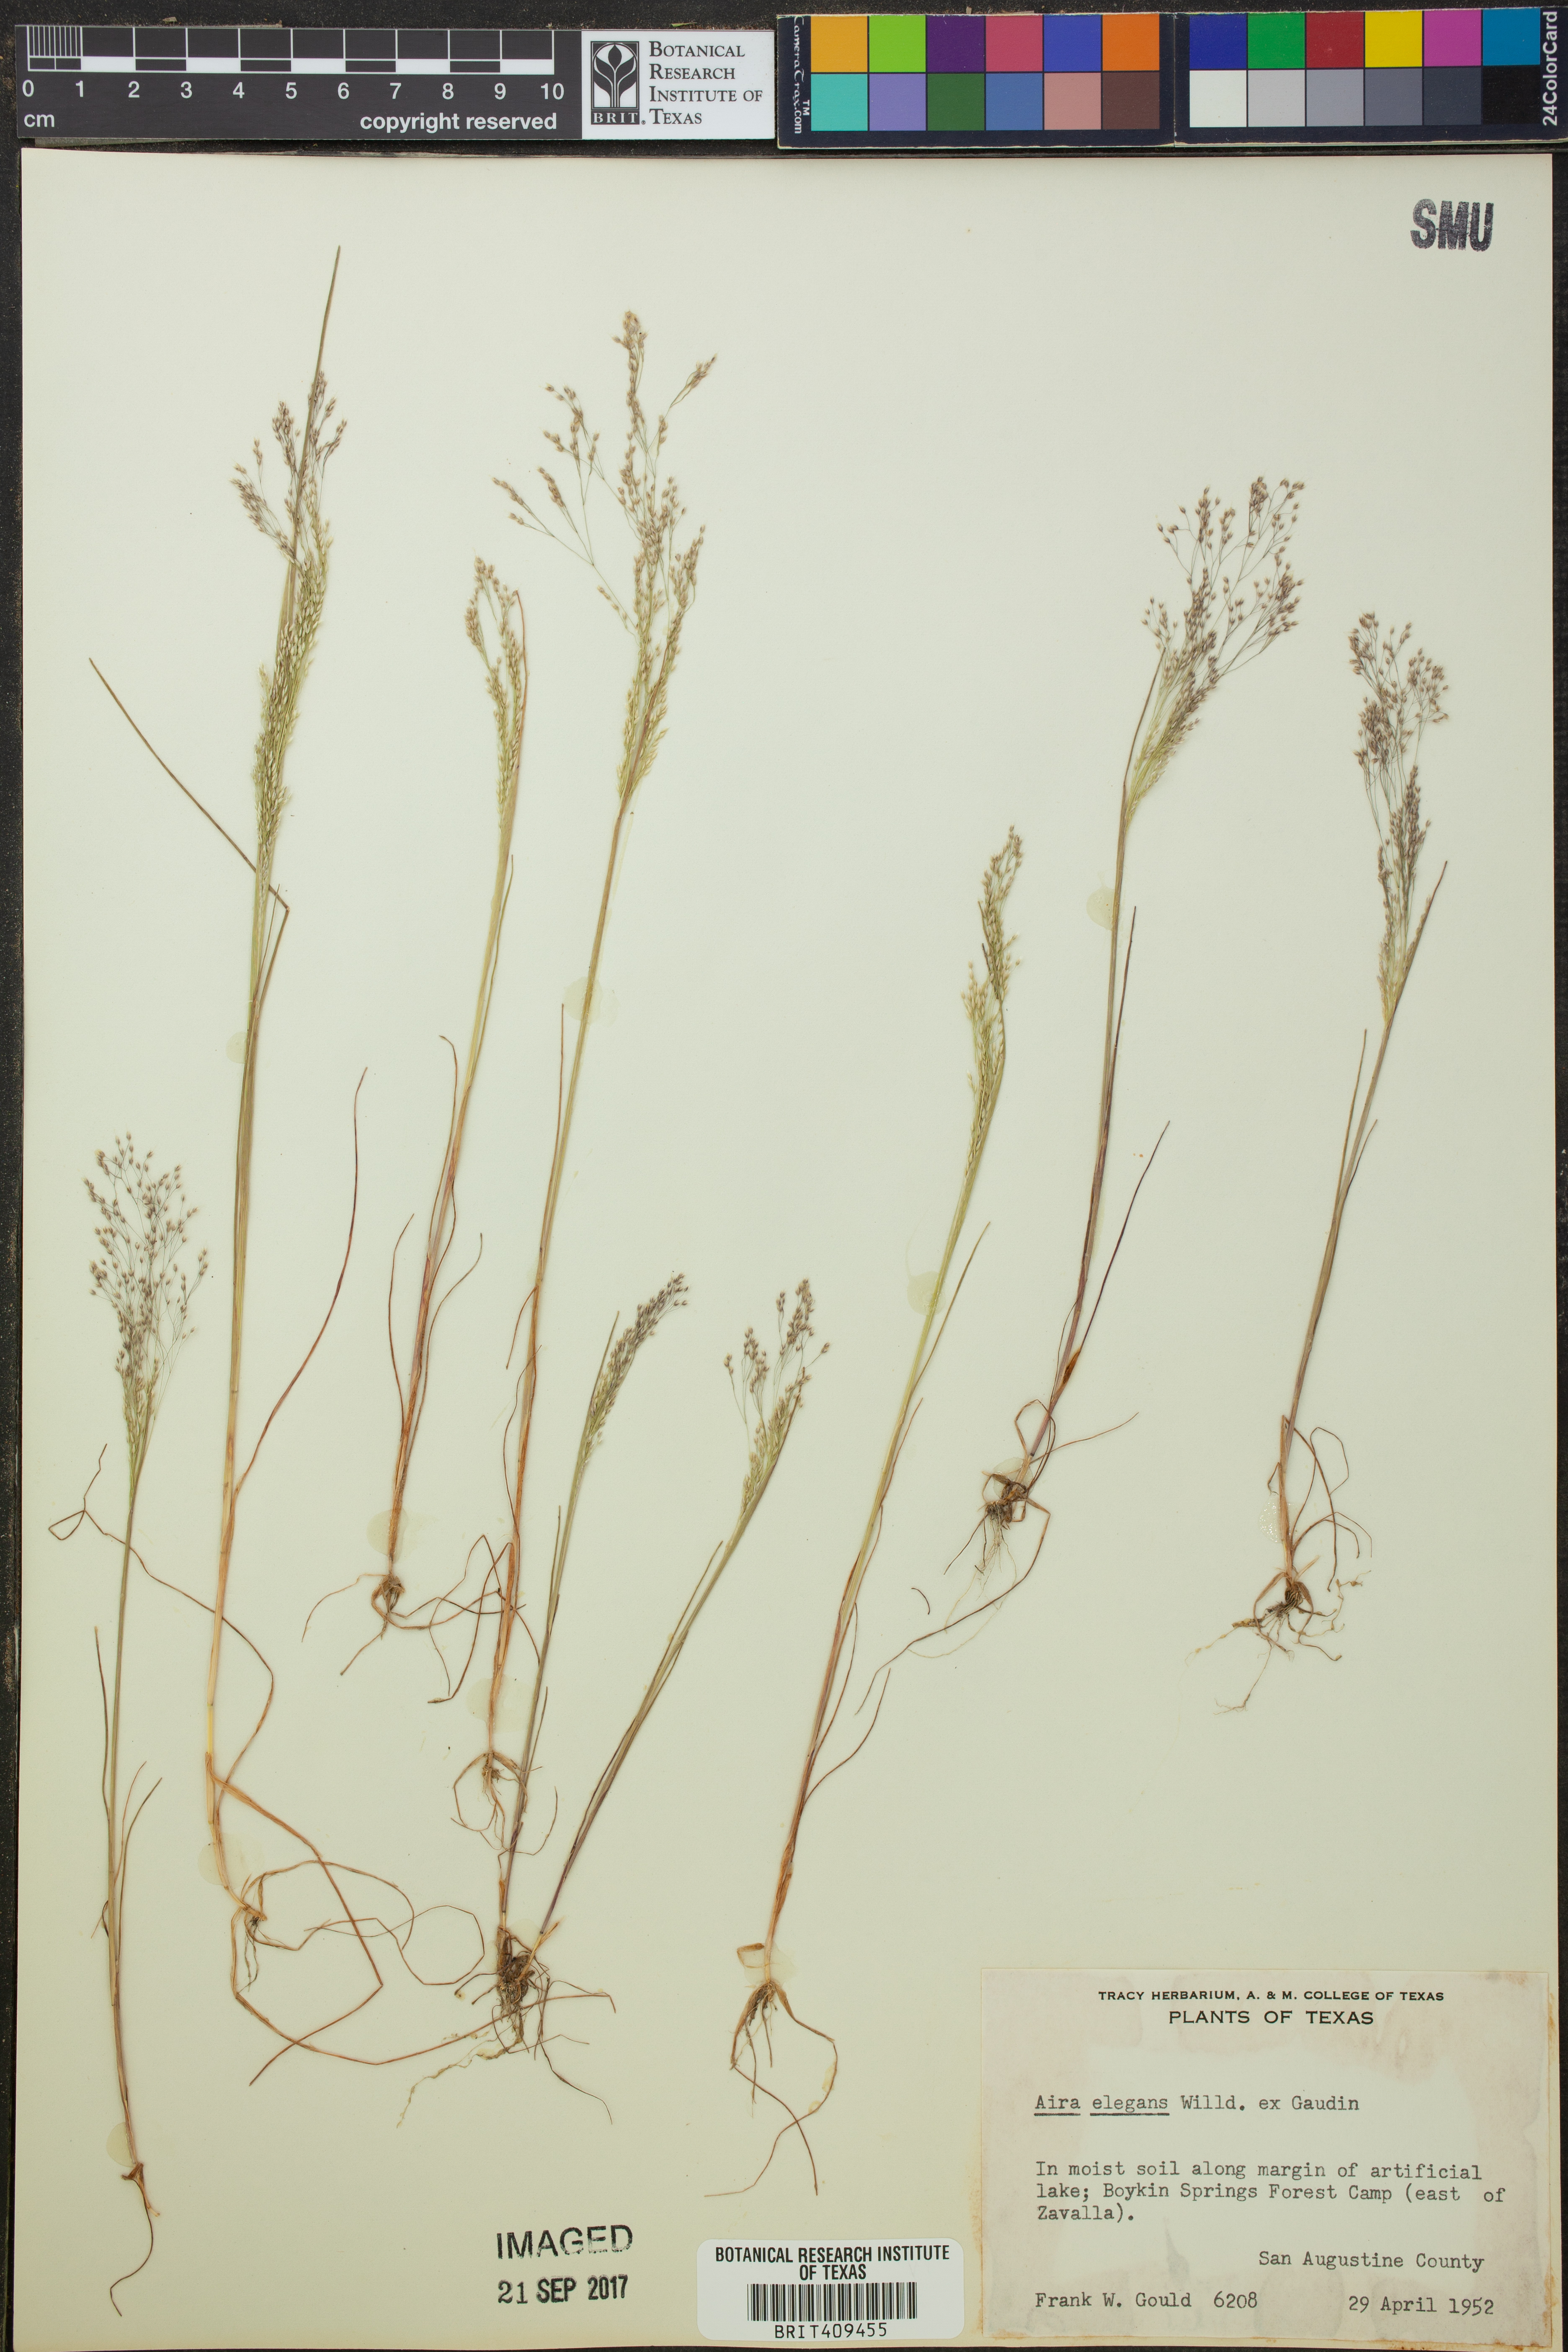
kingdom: Plantae
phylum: Tracheophyta
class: Liliopsida
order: Poales
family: Poaceae
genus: Aira
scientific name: Aira elegans
